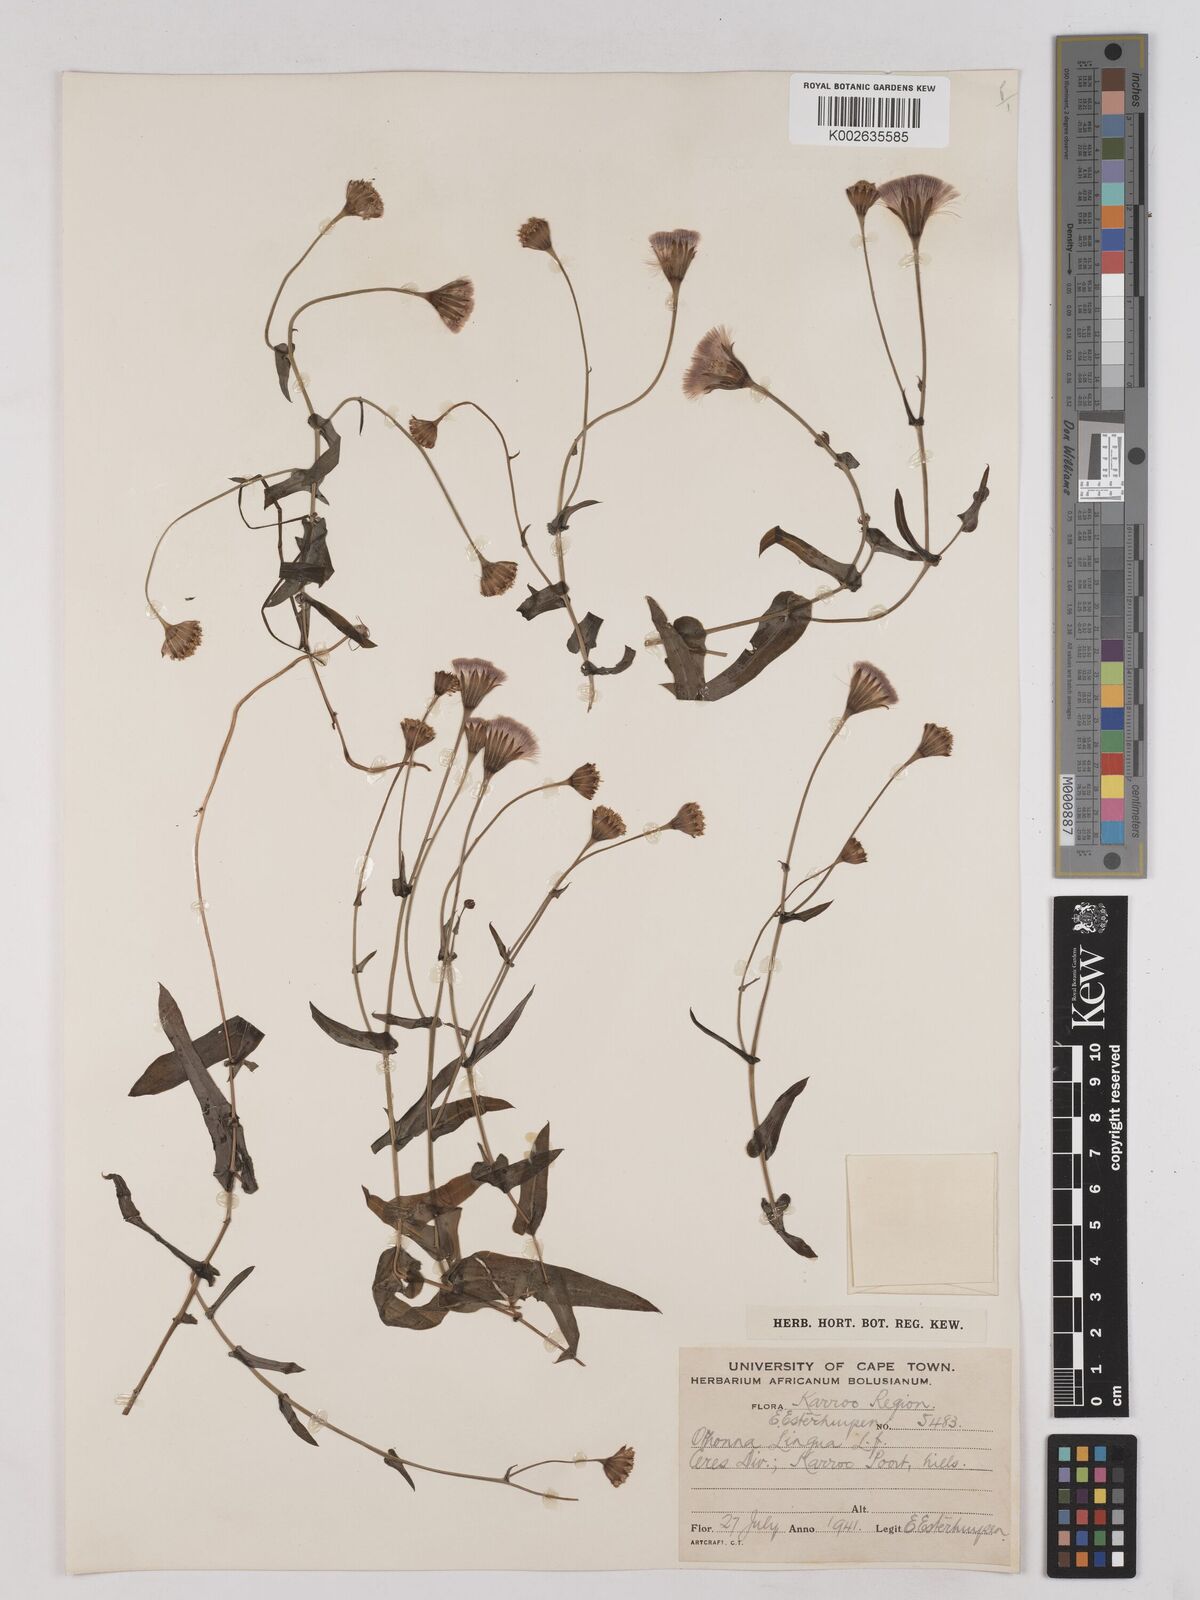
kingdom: Plantae
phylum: Tracheophyta
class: Magnoliopsida
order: Asterales
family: Asteraceae
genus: Othonna
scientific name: Othonna bulbosa
